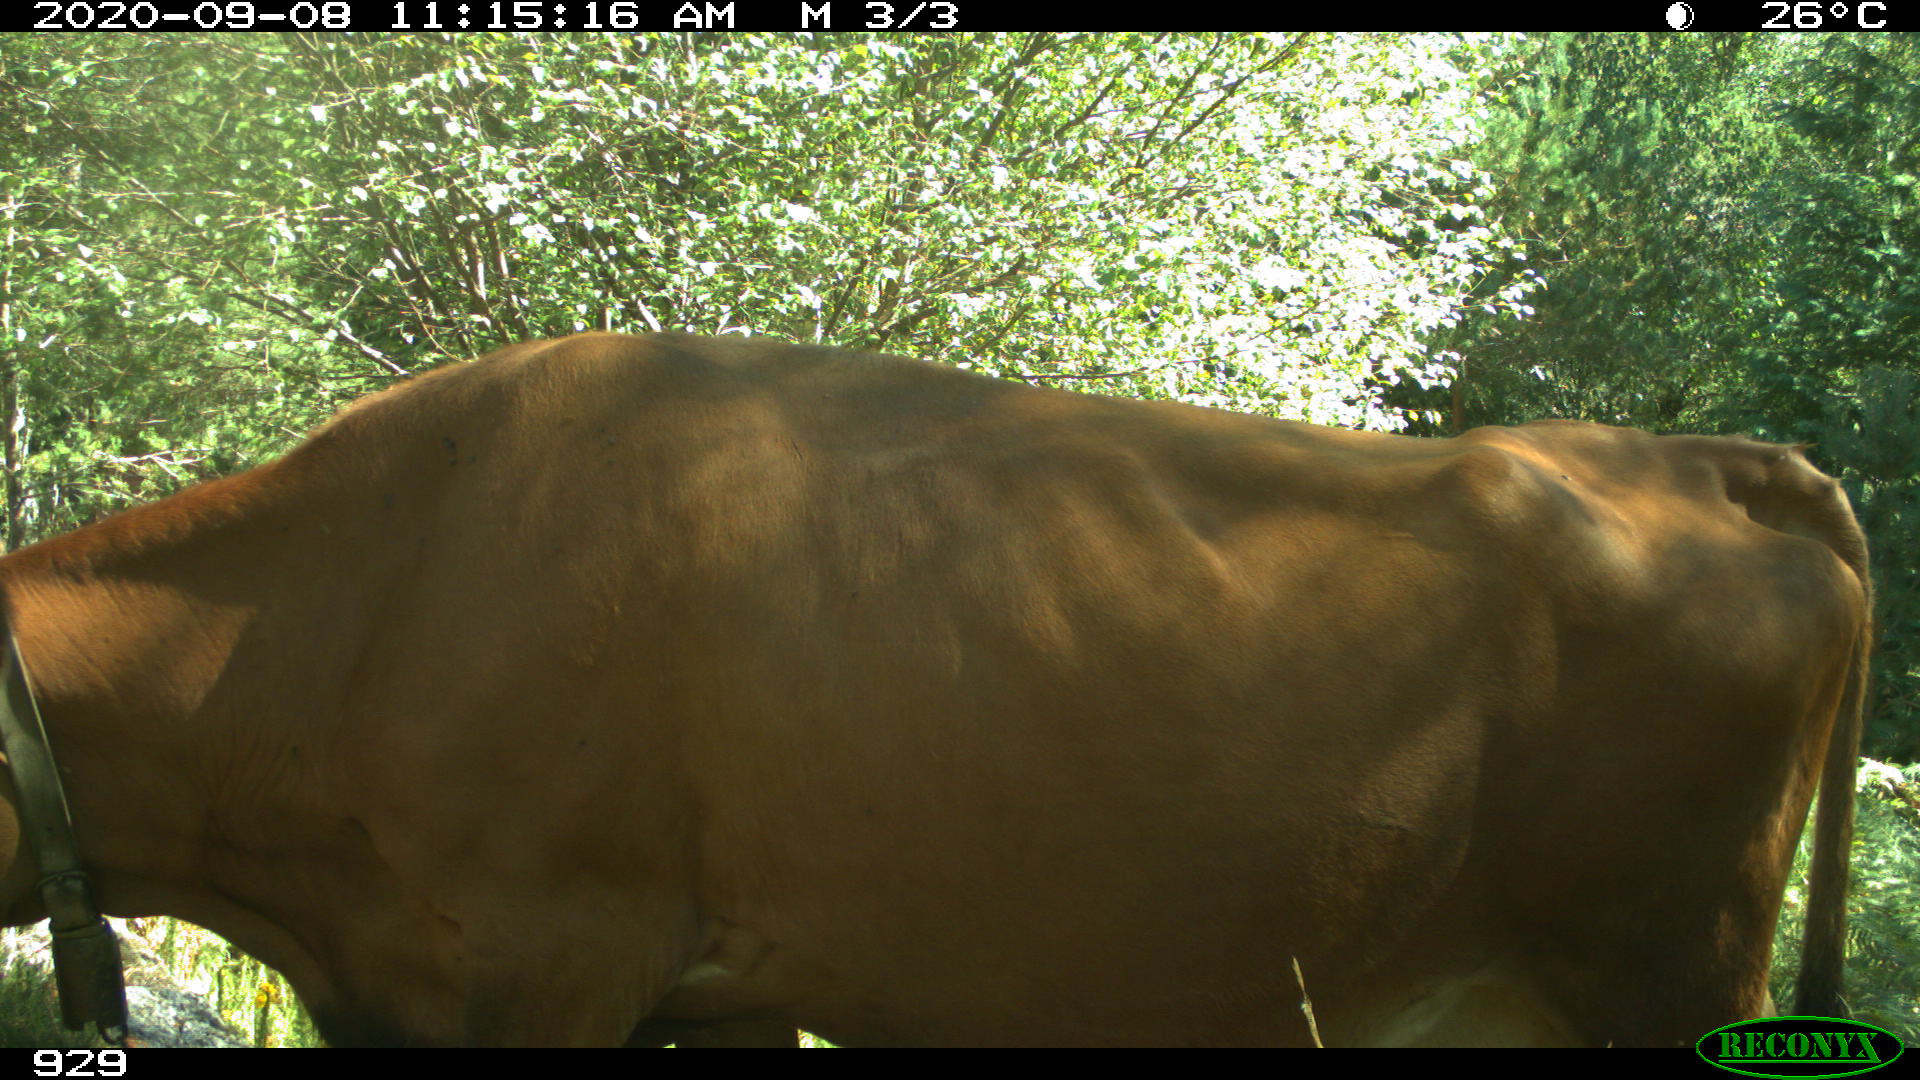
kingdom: Animalia
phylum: Chordata
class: Mammalia
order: Artiodactyla
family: Bovidae
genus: Bos
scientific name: Bos taurus
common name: Domesticated cattle
